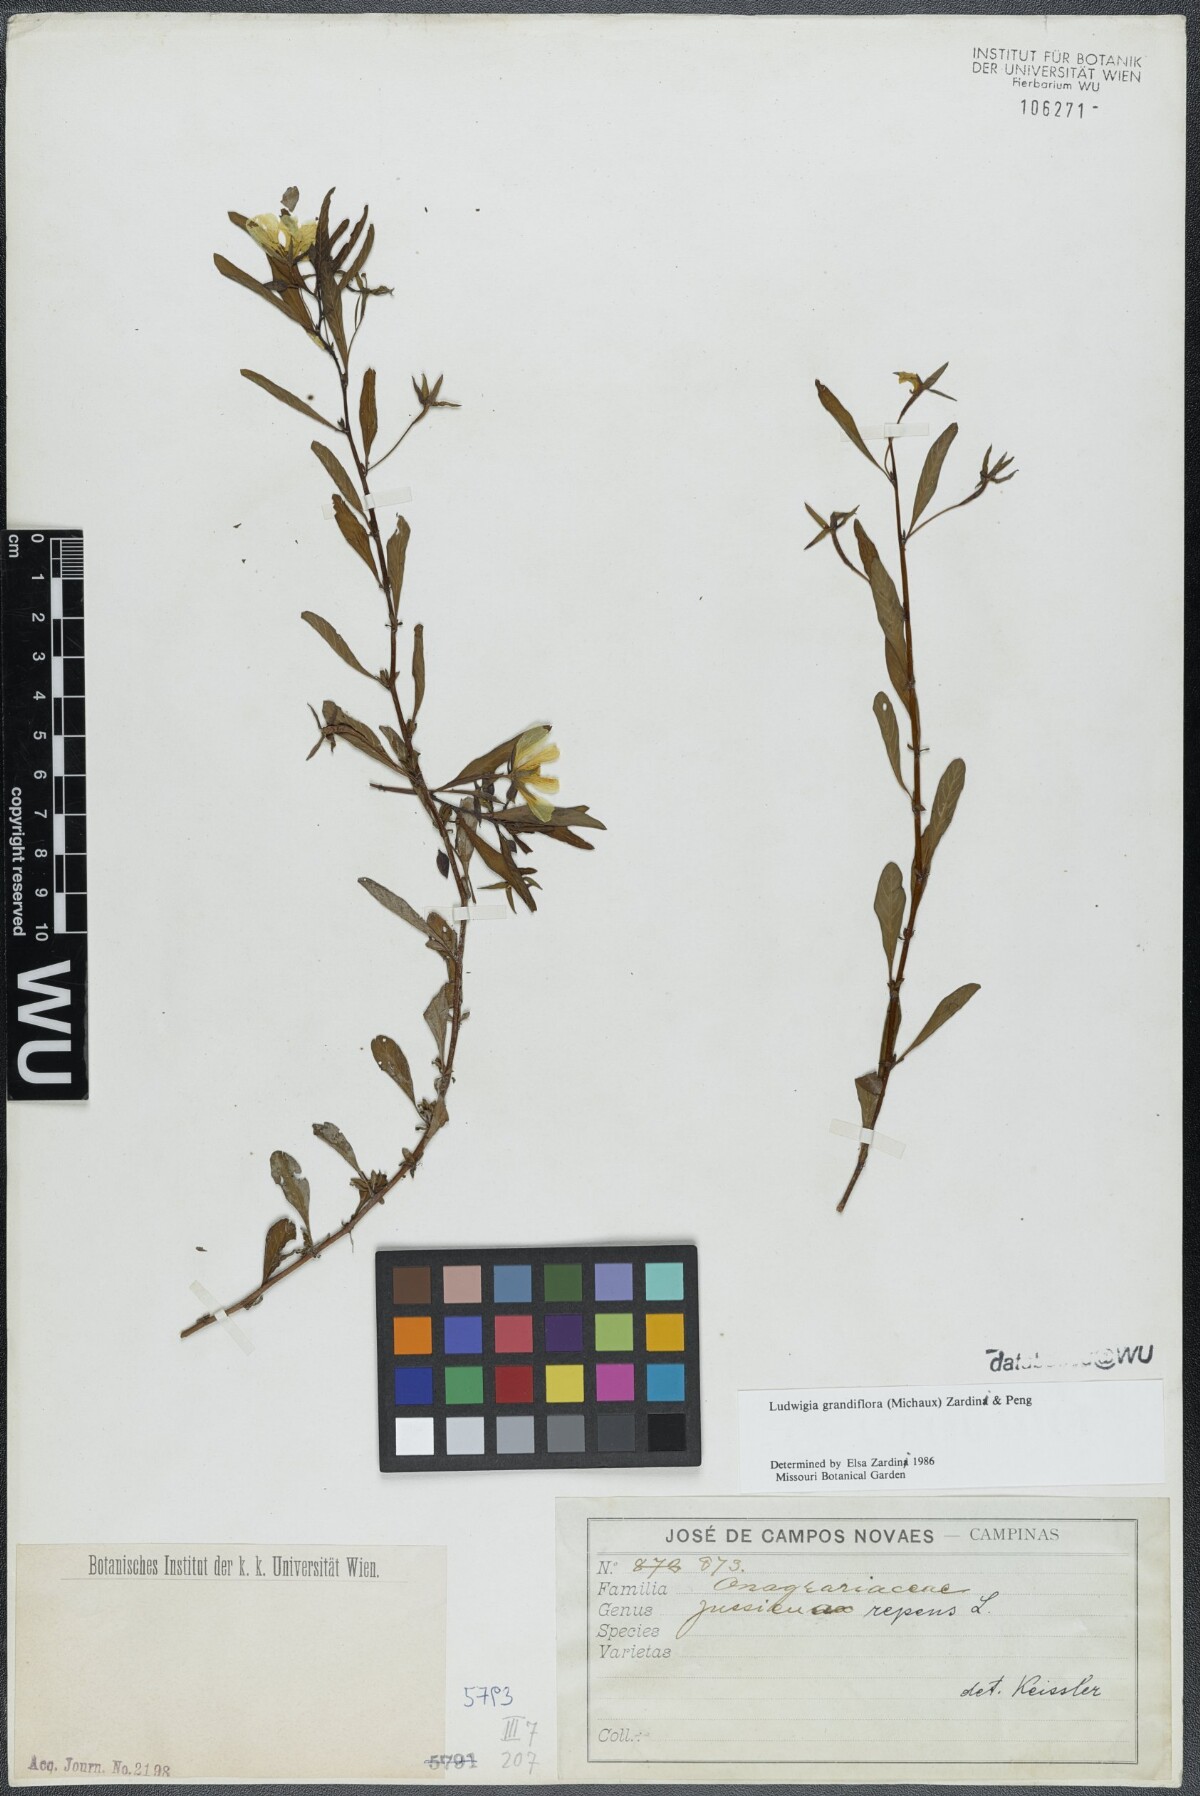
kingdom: Plantae
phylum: Tracheophyta
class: Magnoliopsida
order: Myrtales
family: Onagraceae
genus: Ludwigia
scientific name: Ludwigia grandiflora
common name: Water primrose
